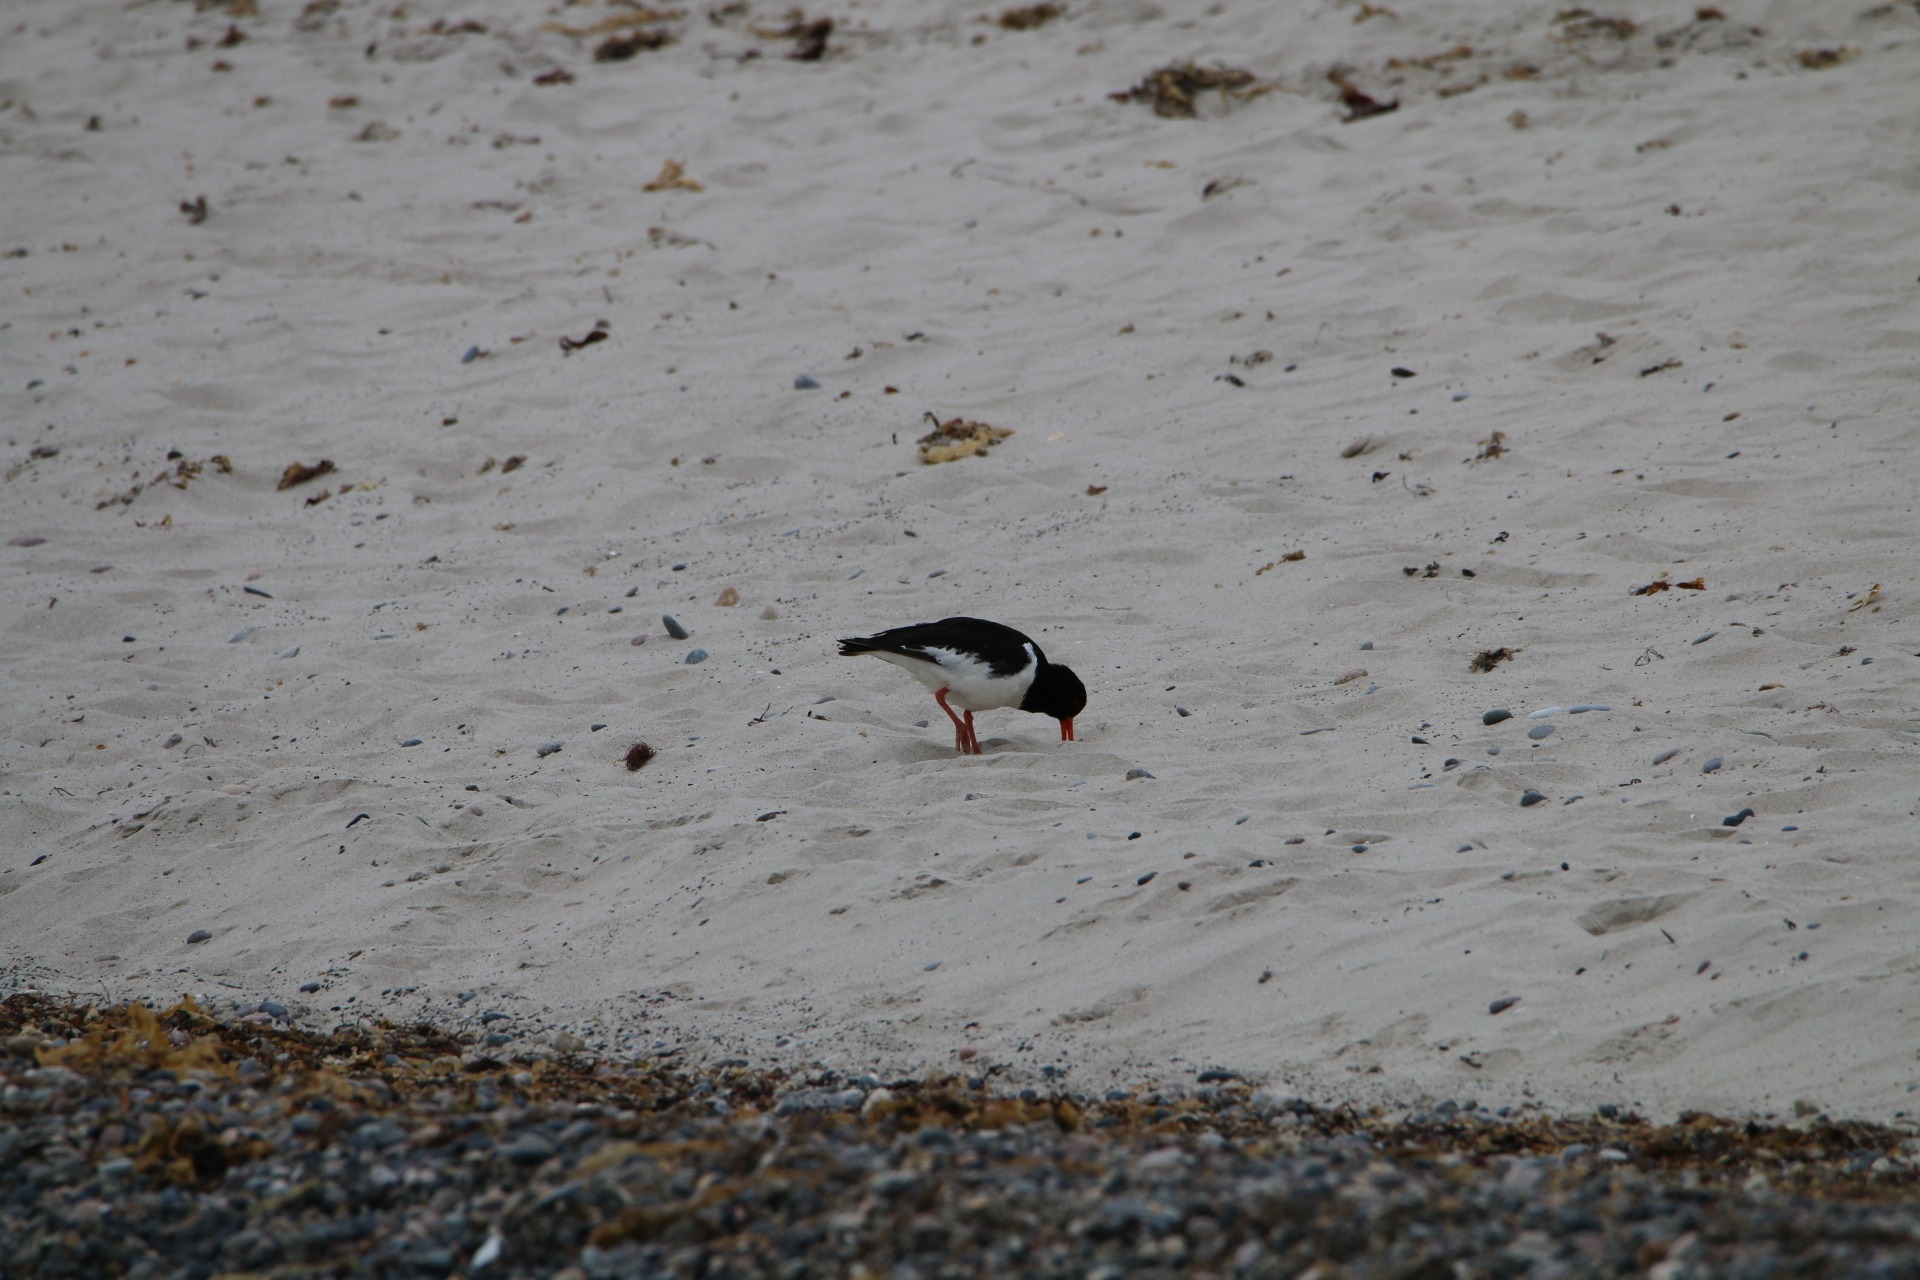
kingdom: Animalia
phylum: Chordata
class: Aves
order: Charadriiformes
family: Haematopodidae
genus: Haematopus
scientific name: Haematopus ostralegus
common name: Strandskade
